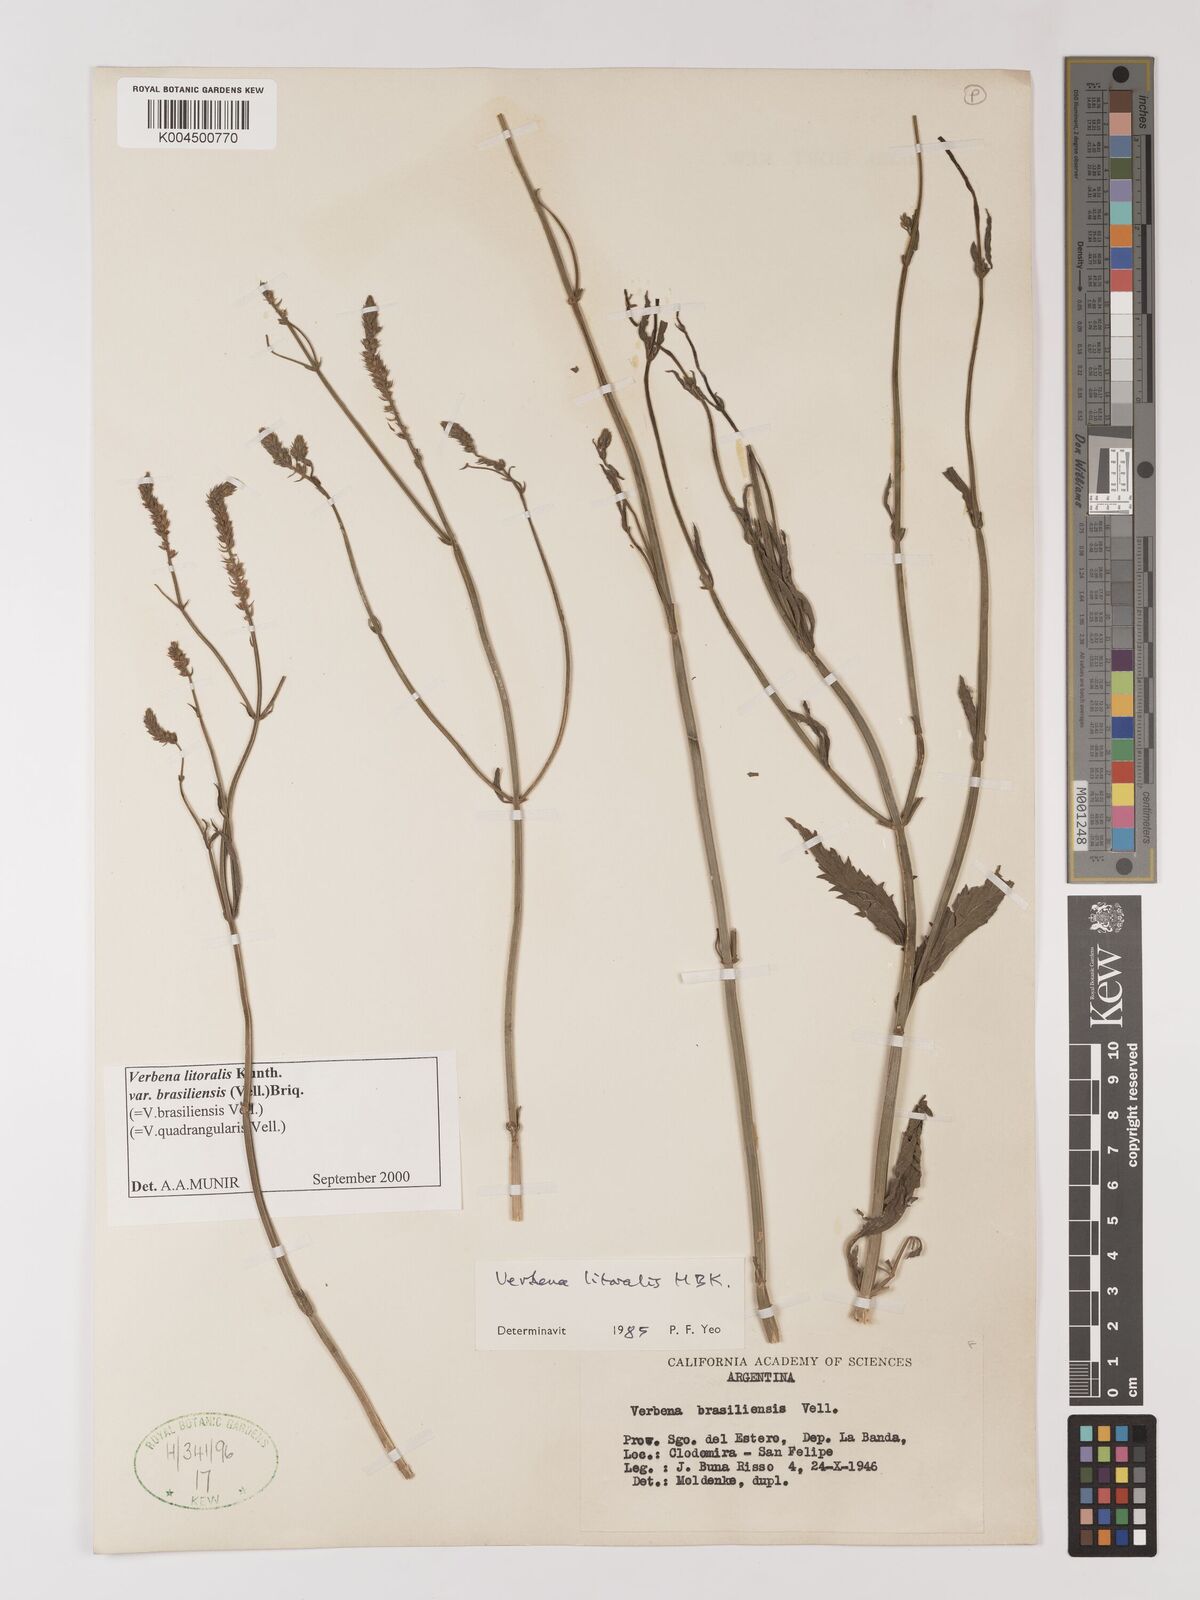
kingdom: Plantae
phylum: Tracheophyta
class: Magnoliopsida
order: Lamiales
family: Verbenaceae
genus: Verbena
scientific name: Verbena brasiliensis
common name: Brazilian vervain
